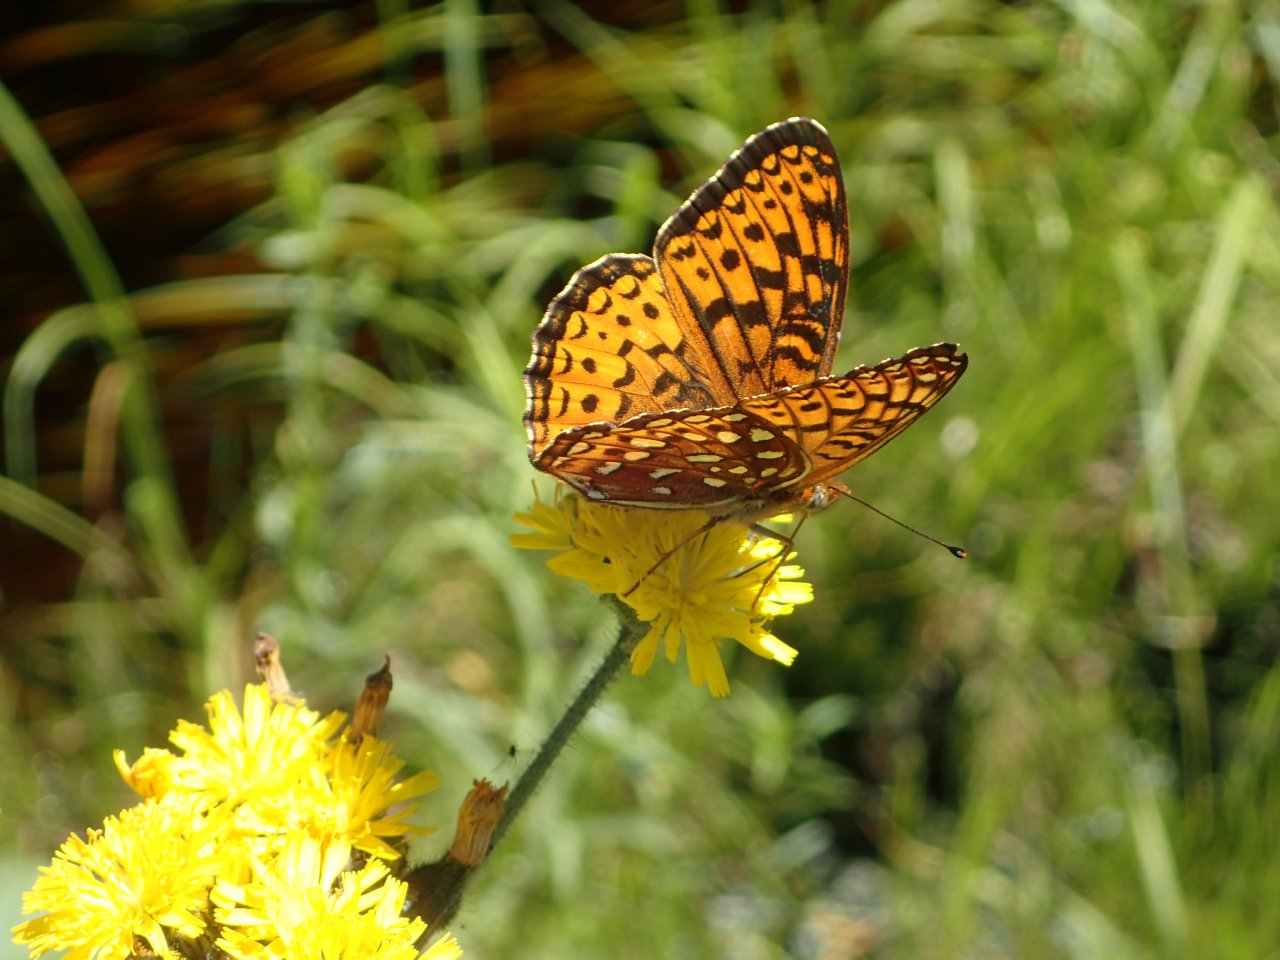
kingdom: Animalia
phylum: Arthropoda
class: Insecta
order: Lepidoptera
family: Nymphalidae
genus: Speyeria
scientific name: Speyeria atlantis
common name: Atlantis Fritillary
